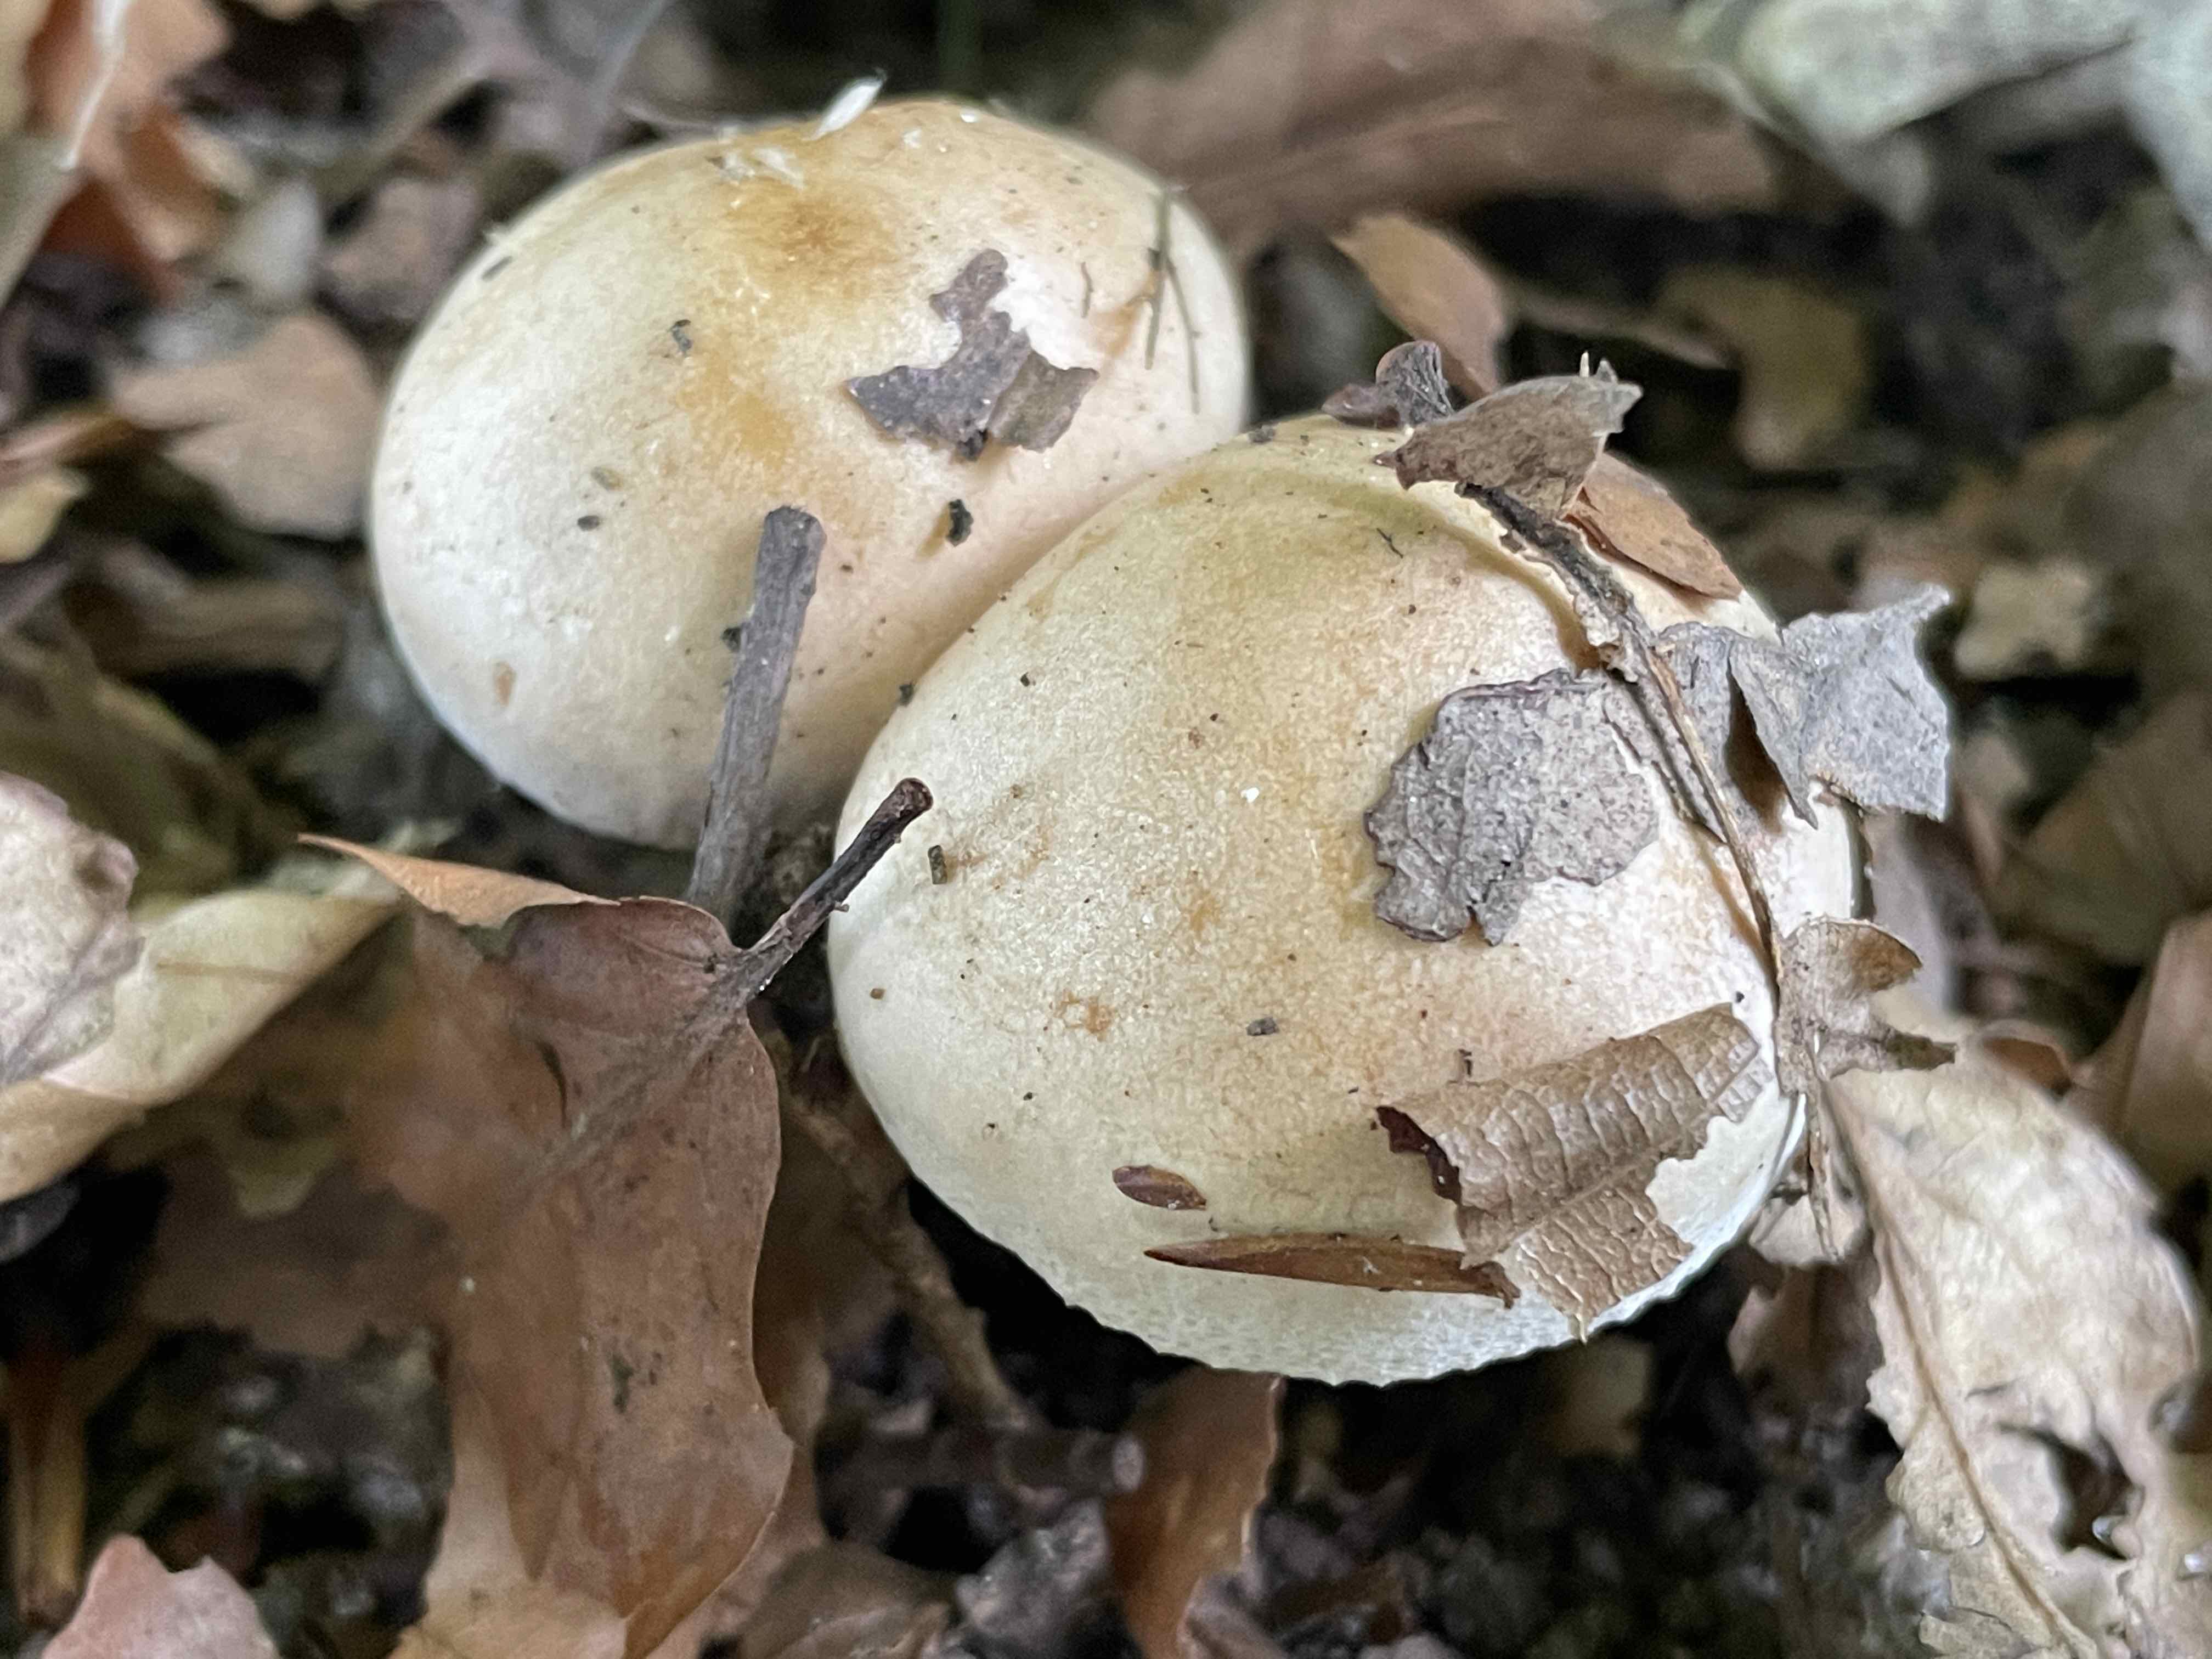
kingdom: Fungi
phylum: Basidiomycota
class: Agaricomycetes
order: Agaricales
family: Hymenogastraceae
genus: Hebeloma
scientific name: Hebeloma
